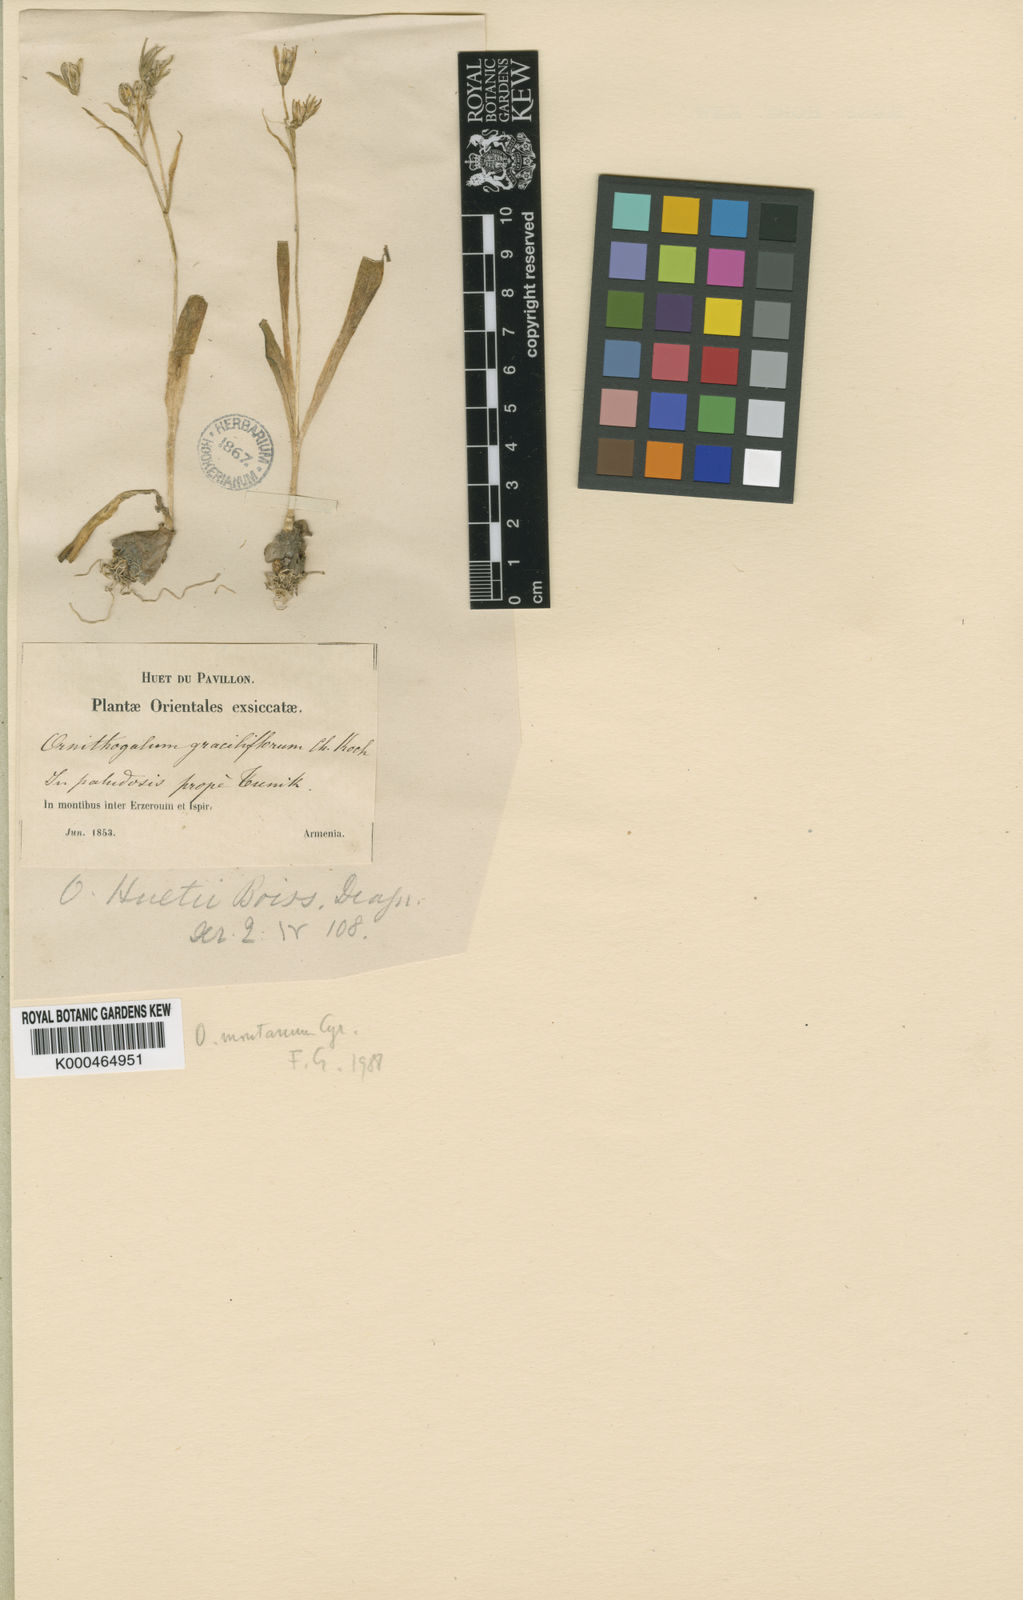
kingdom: Plantae
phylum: Tracheophyta
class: Liliopsida
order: Asparagales
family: Asparagaceae
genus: Ornithogalum
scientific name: Ornithogalum
